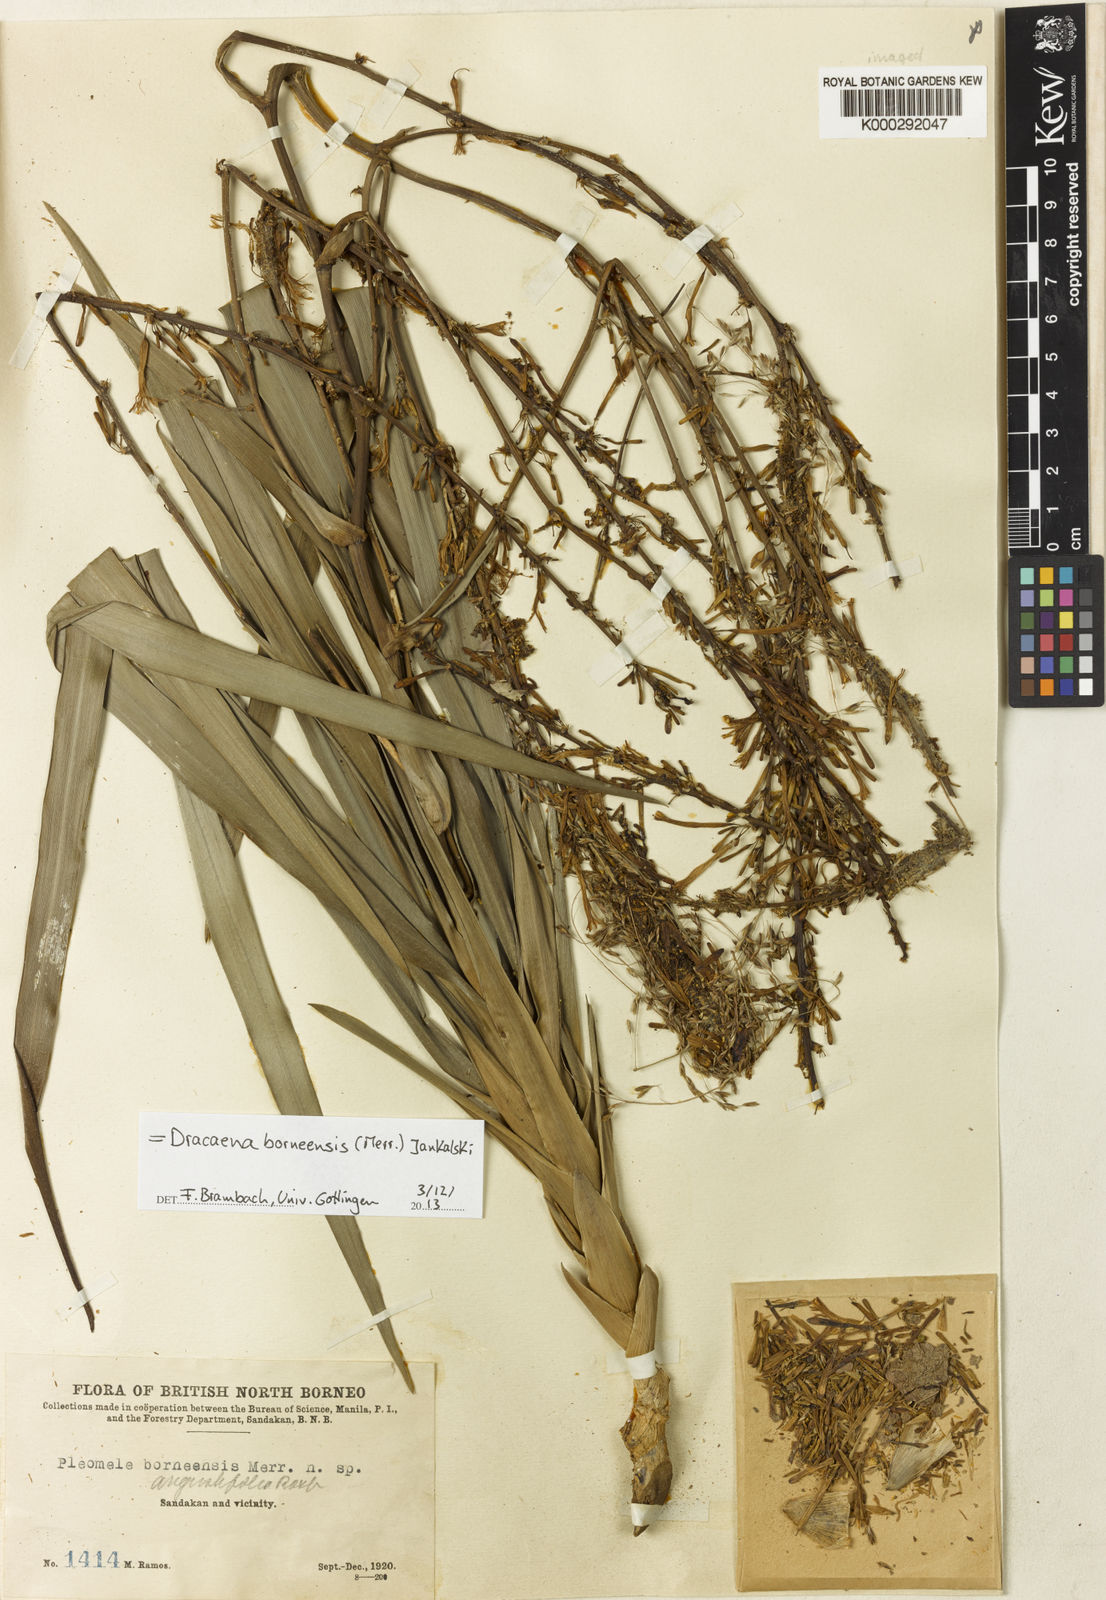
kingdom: Plantae
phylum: Tracheophyta
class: Liliopsida
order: Asparagales
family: Asparagaceae
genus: Dracaena
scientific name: Dracaena angustifolia
